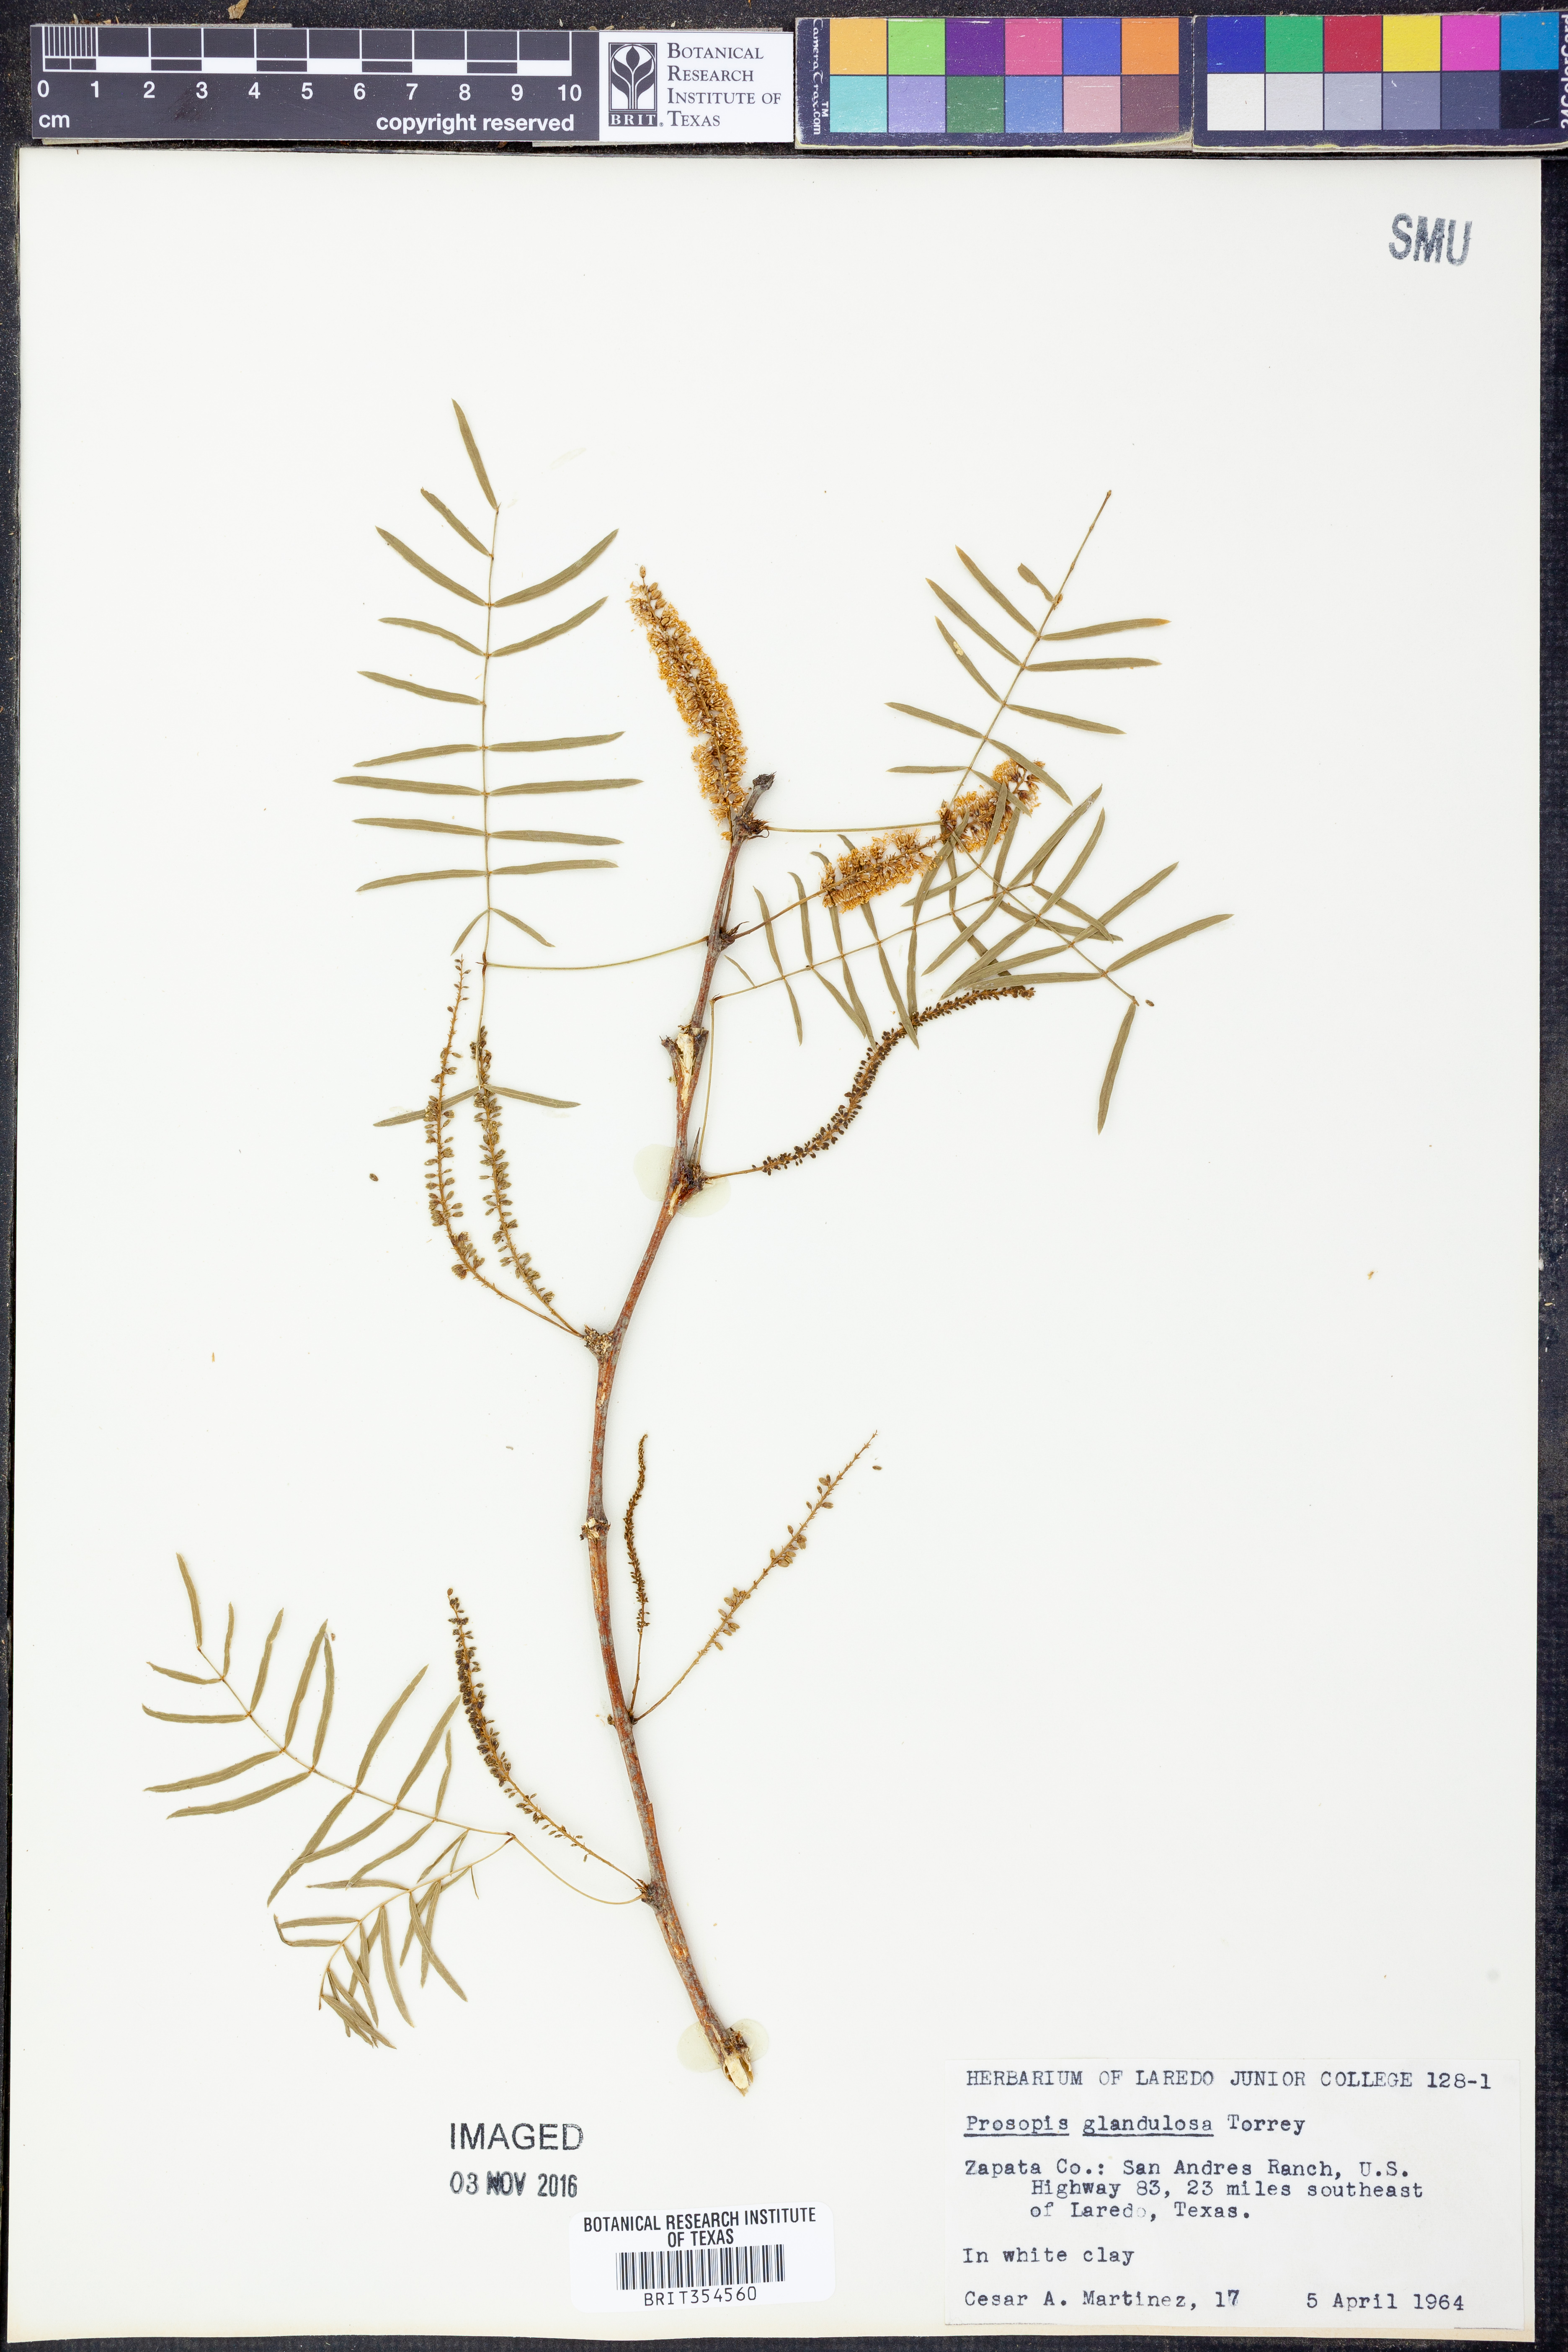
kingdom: Plantae
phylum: Tracheophyta
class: Magnoliopsida
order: Fabales
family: Fabaceae
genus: Prosopis
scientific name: Prosopis glandulosa
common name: Honey mesquite
